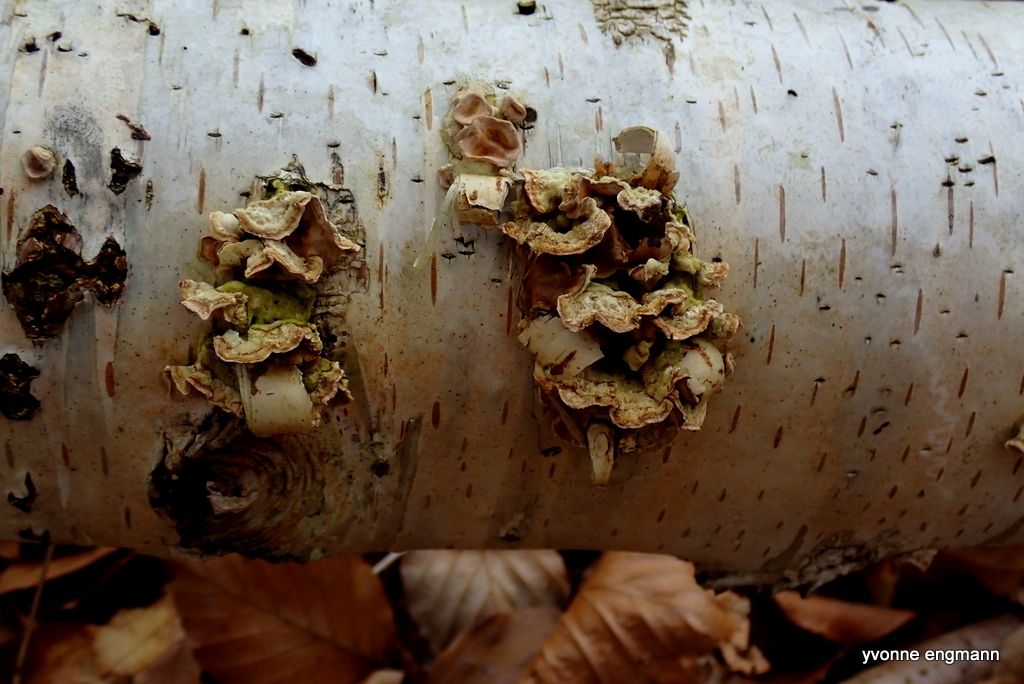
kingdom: Fungi
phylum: Basidiomycota
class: Agaricomycetes
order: Russulales
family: Stereaceae
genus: Stereum
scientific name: Stereum hirsutum
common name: håret lædersvamp
